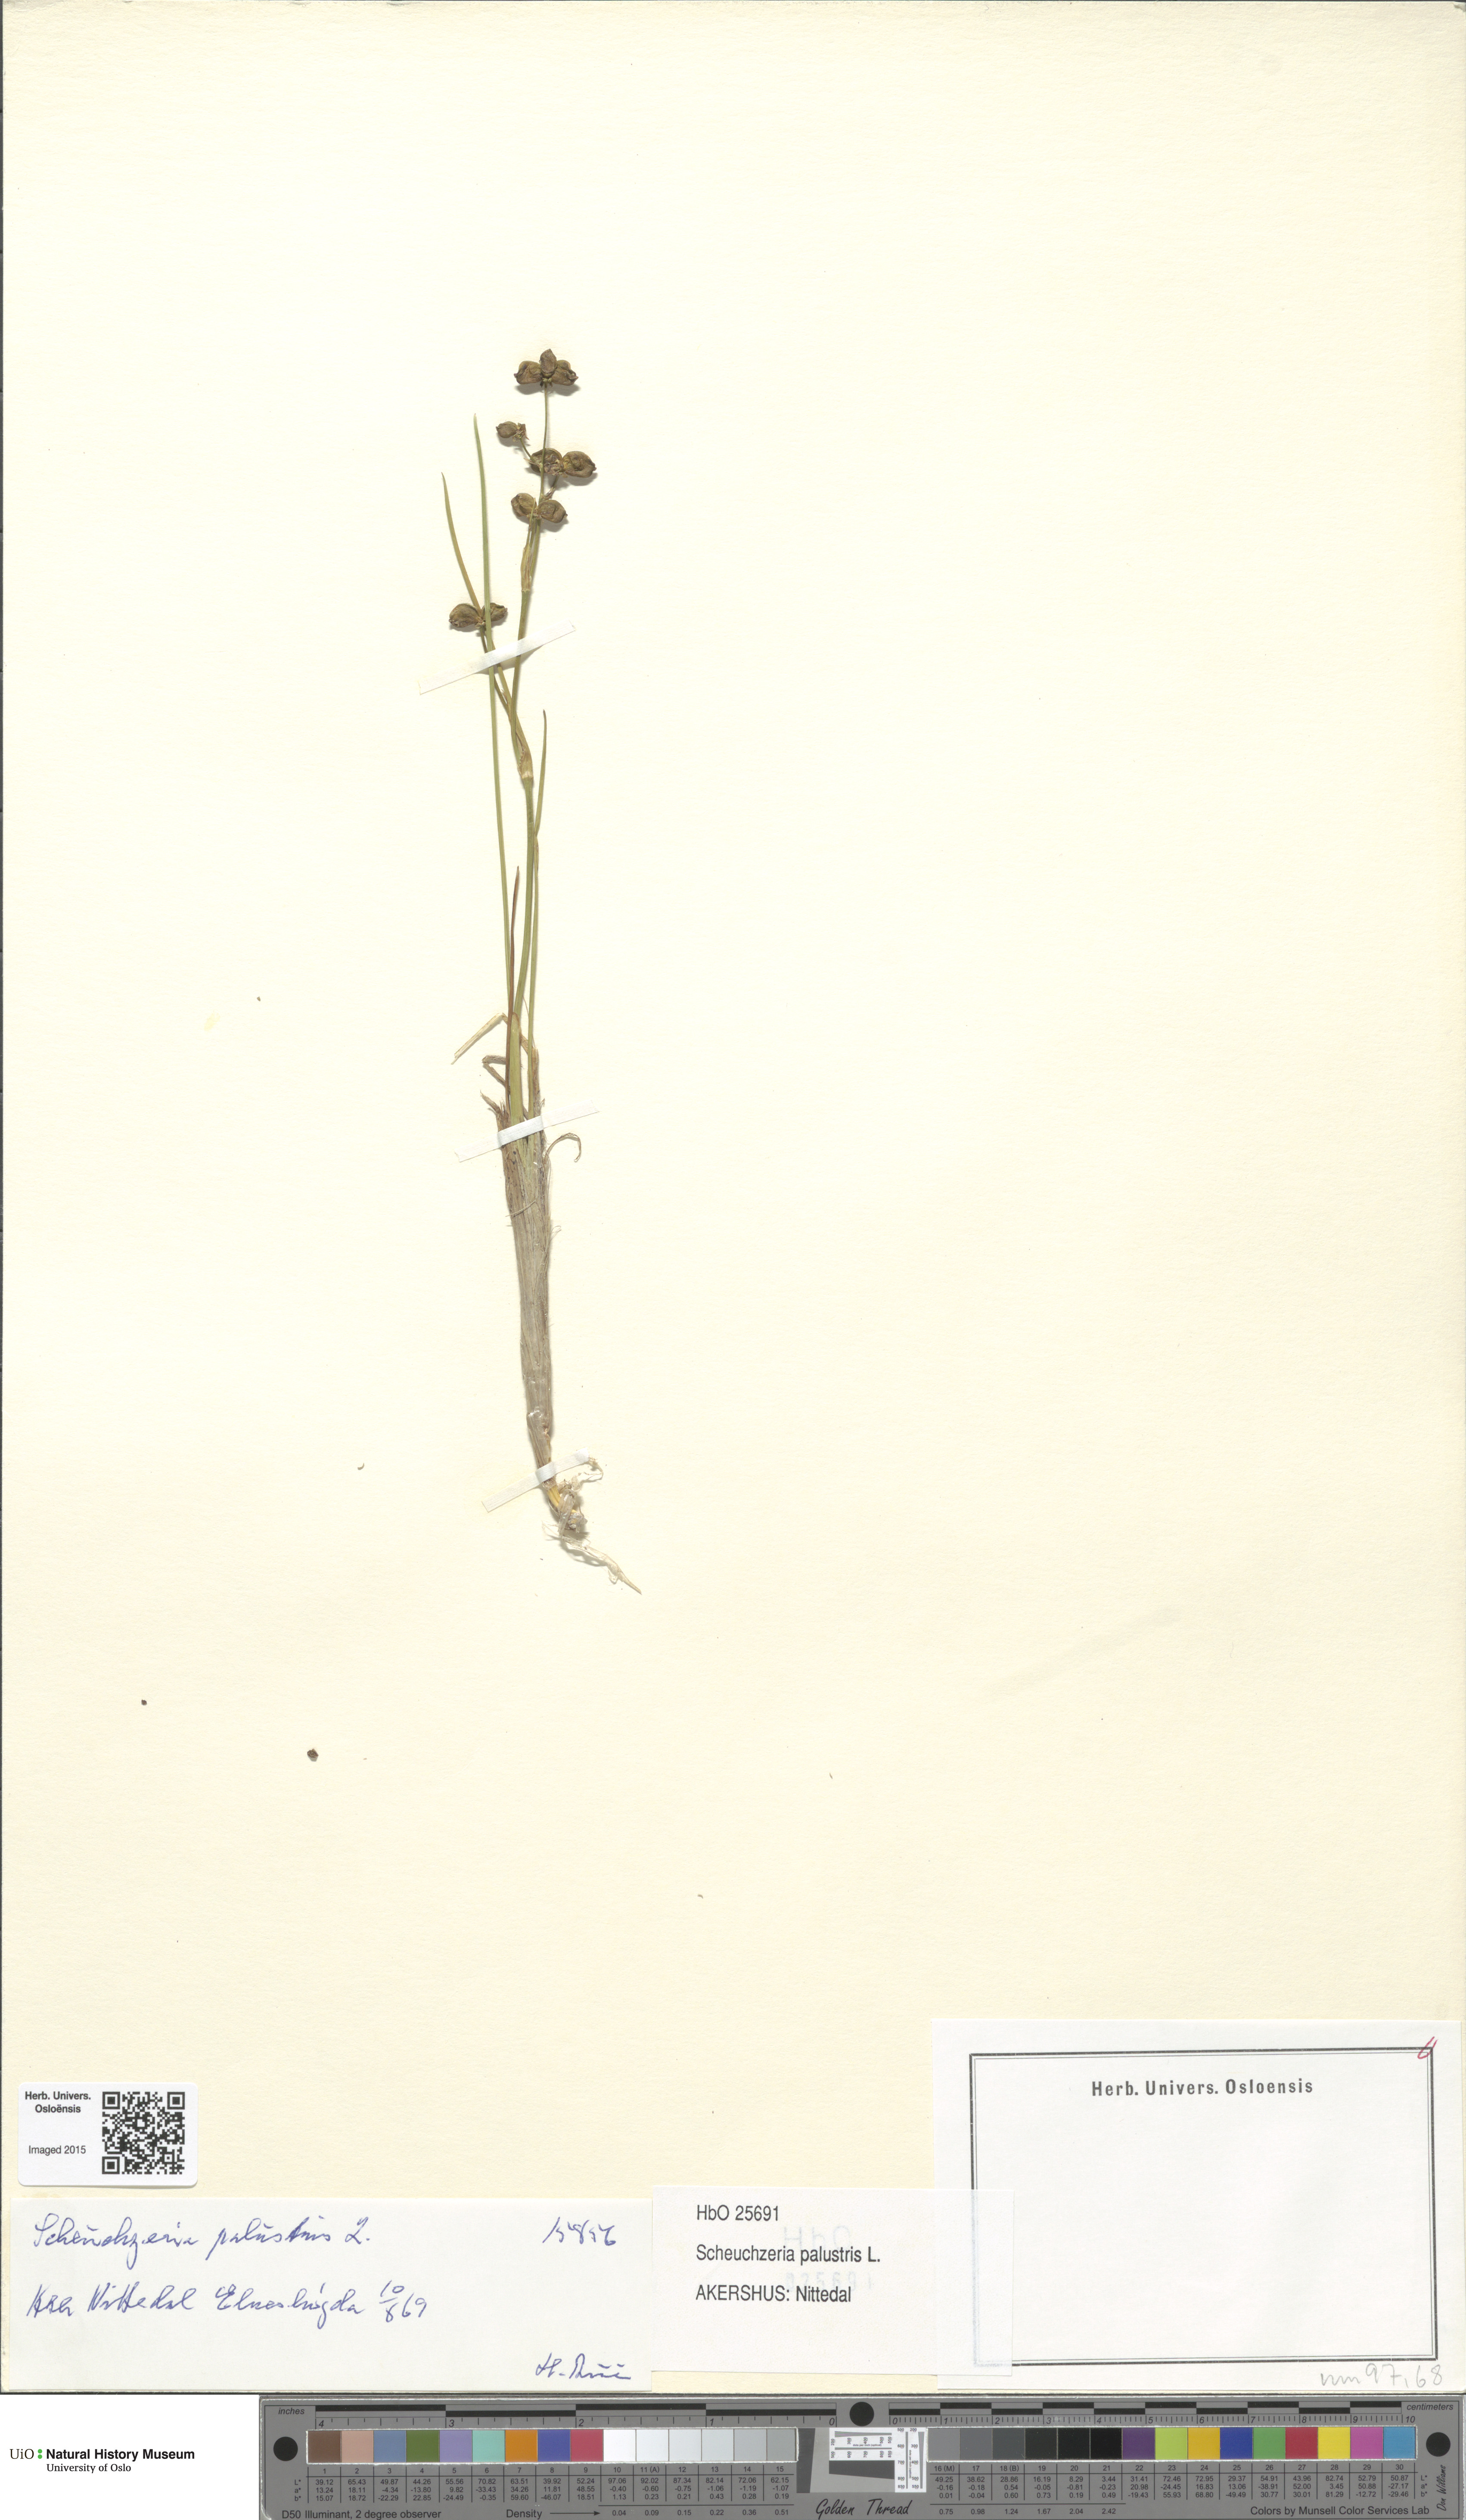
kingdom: Plantae
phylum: Tracheophyta
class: Liliopsida
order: Alismatales
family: Scheuchzeriaceae
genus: Scheuchzeria
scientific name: Scheuchzeria palustris
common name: Rannoch-rush
